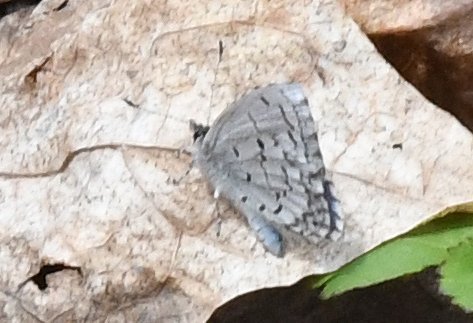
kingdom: Animalia
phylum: Arthropoda
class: Insecta
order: Lepidoptera
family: Lycaenidae
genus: Celastrina
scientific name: Celastrina lucia
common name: Northern Spring Azure
